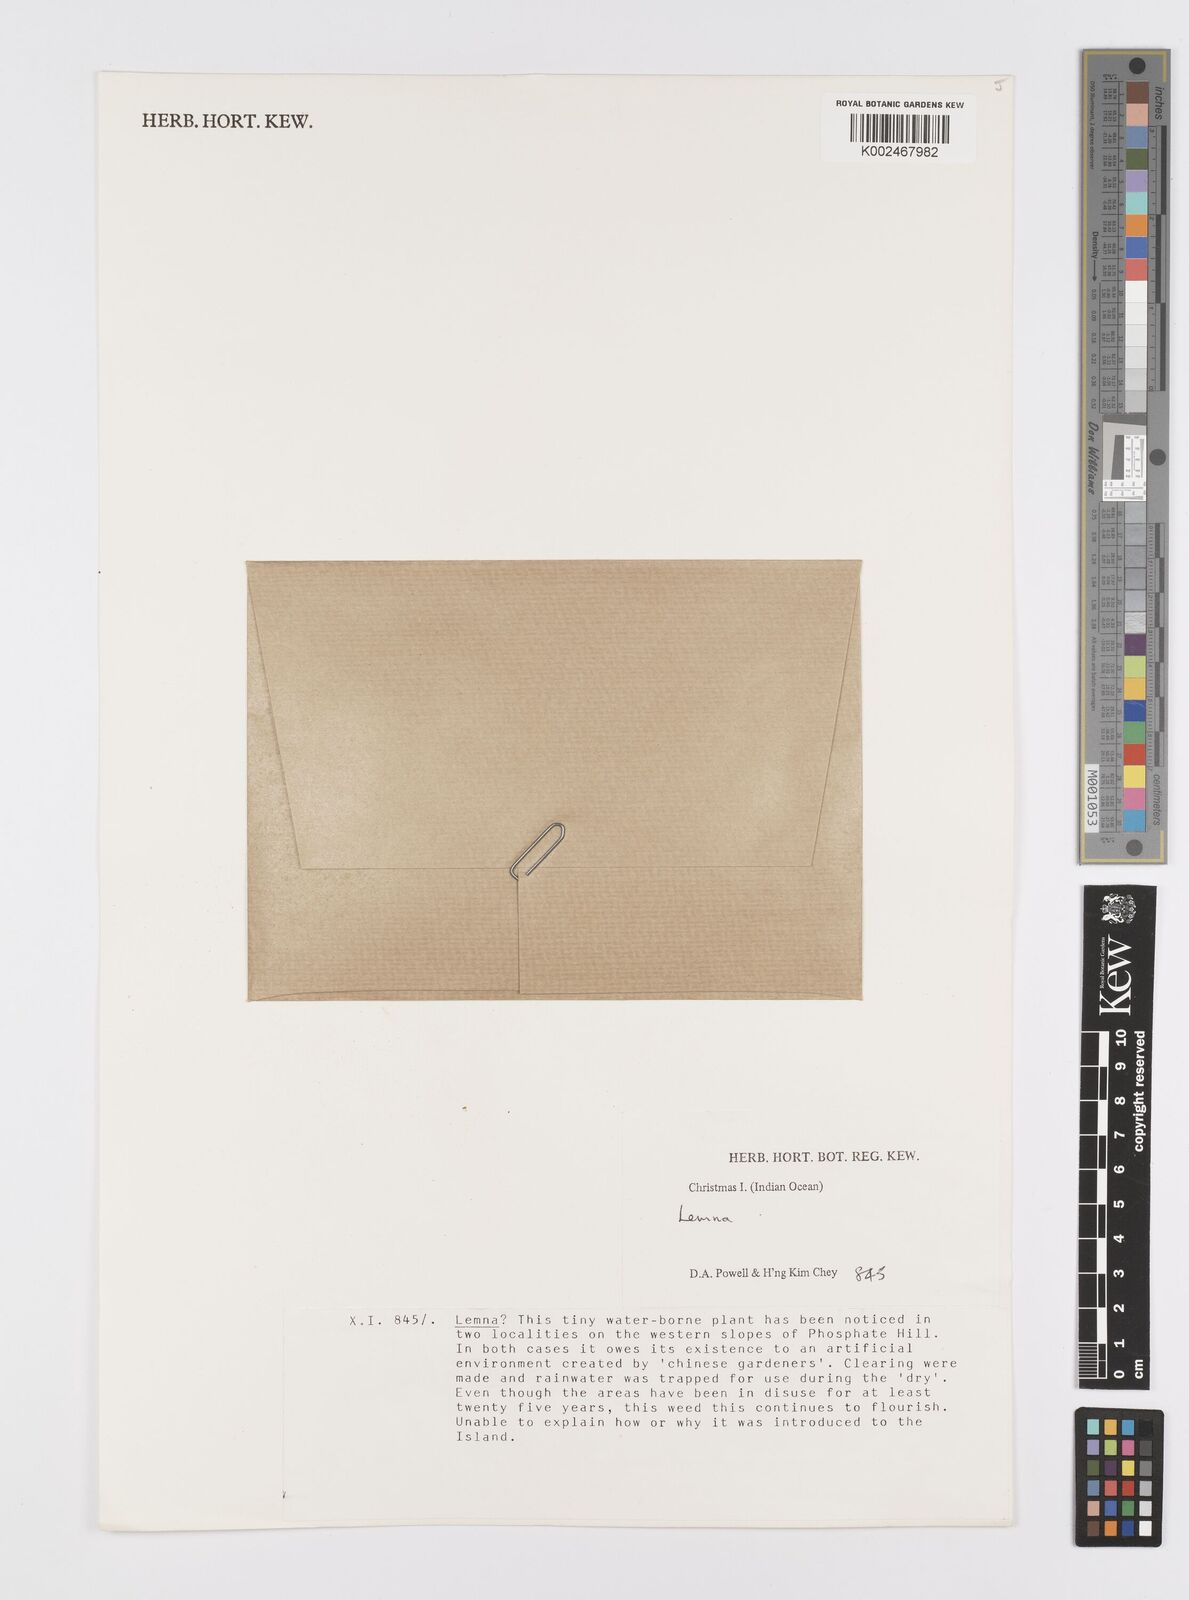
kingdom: Plantae
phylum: Tracheophyta
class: Liliopsida
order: Alismatales
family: Araceae
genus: Lemna
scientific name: Lemna
